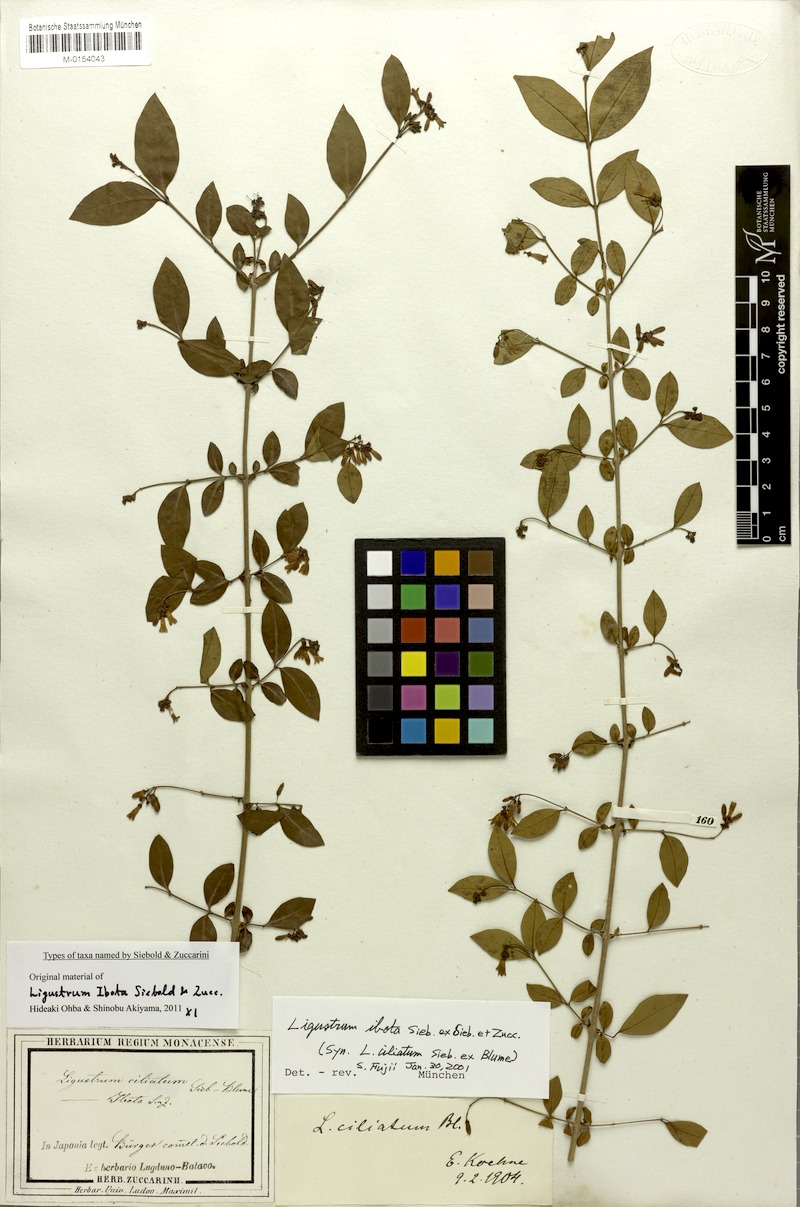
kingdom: Plantae
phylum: Tracheophyta
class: Magnoliopsida
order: Lamiales
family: Oleaceae
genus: Ligustrum
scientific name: Ligustrum ibota
